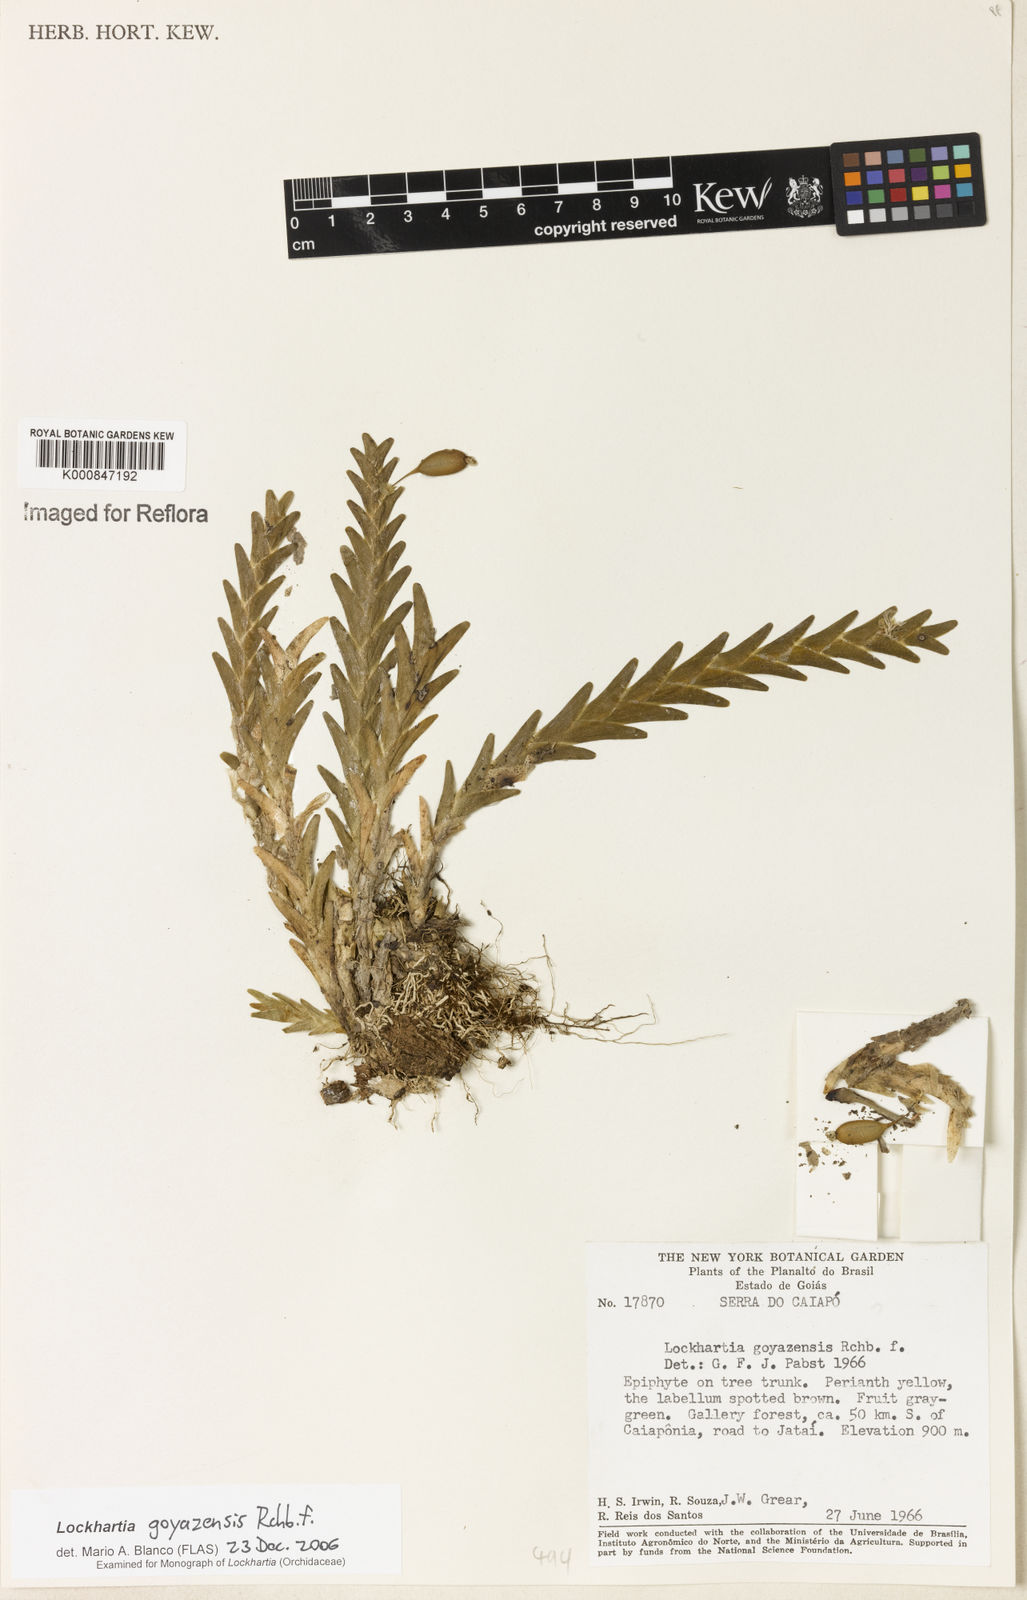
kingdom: Plantae
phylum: Tracheophyta
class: Liliopsida
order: Asparagales
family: Orchidaceae
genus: Lockhartia
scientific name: Lockhartia goyazensis
